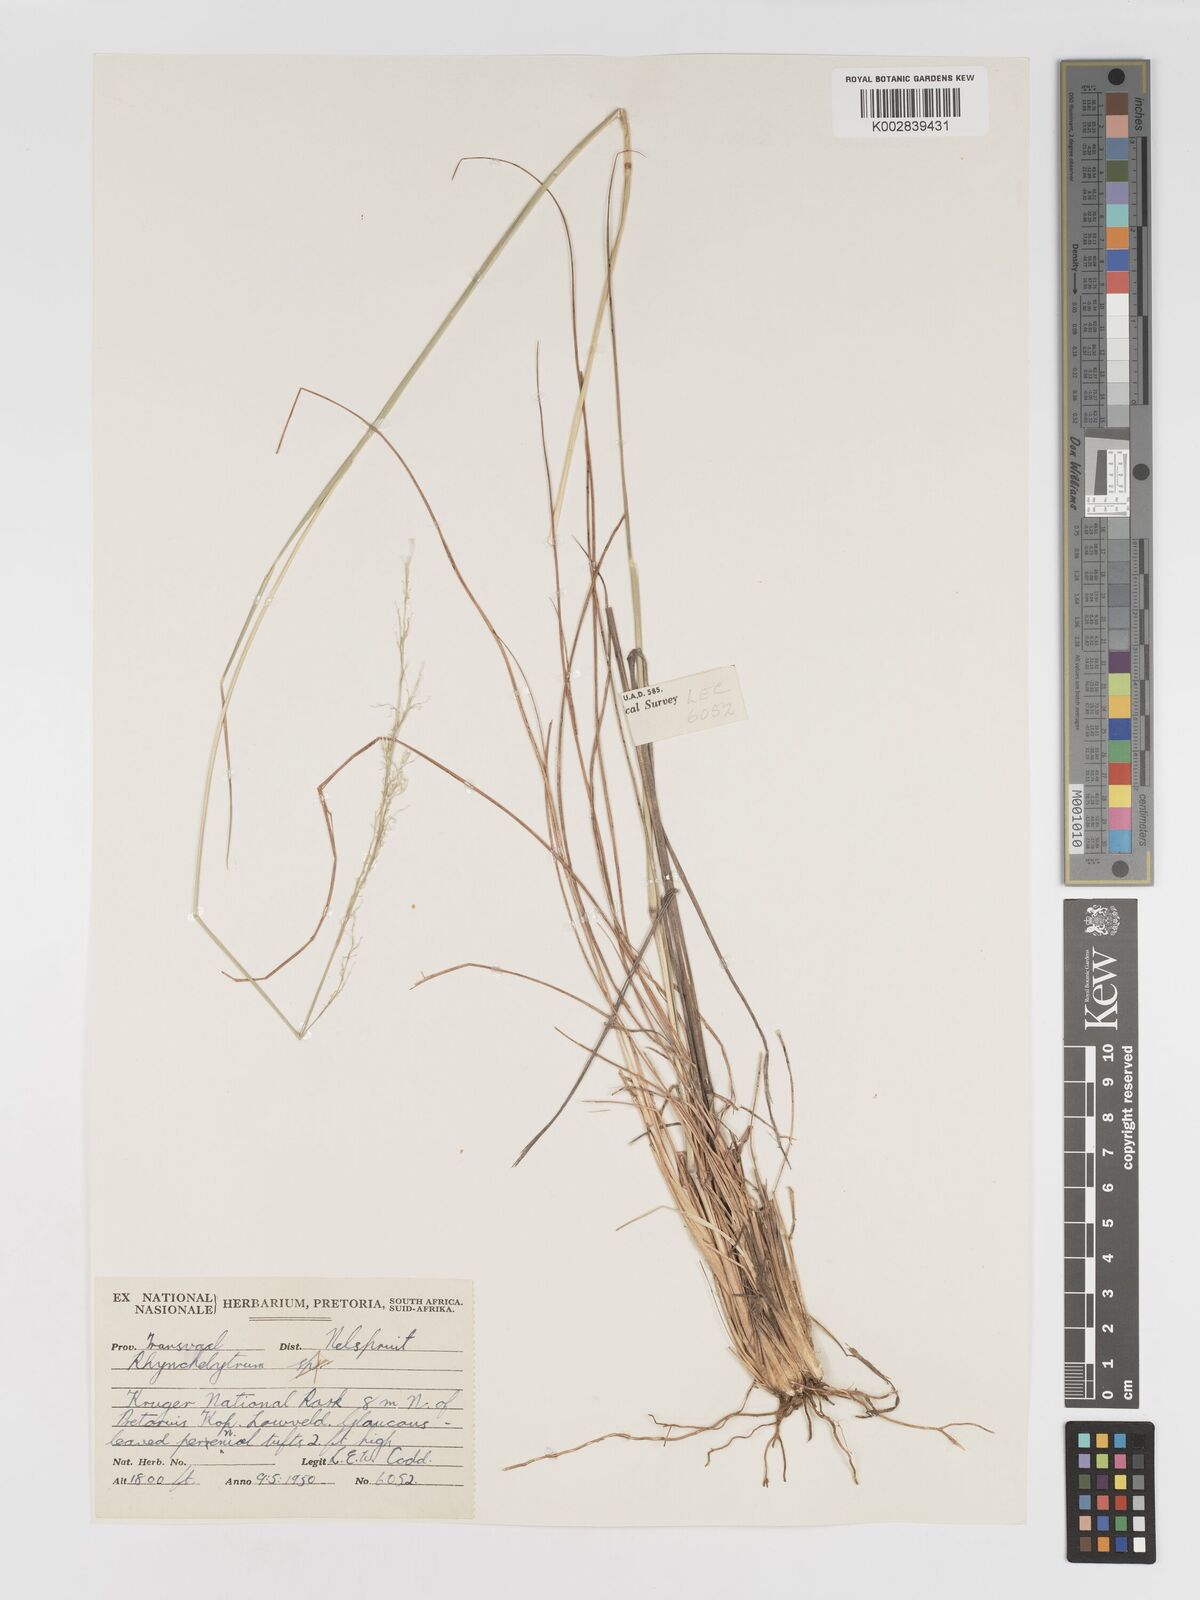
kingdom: Plantae
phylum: Tracheophyta
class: Liliopsida
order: Poales
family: Poaceae
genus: Melinis
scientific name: Melinis nerviglumis
